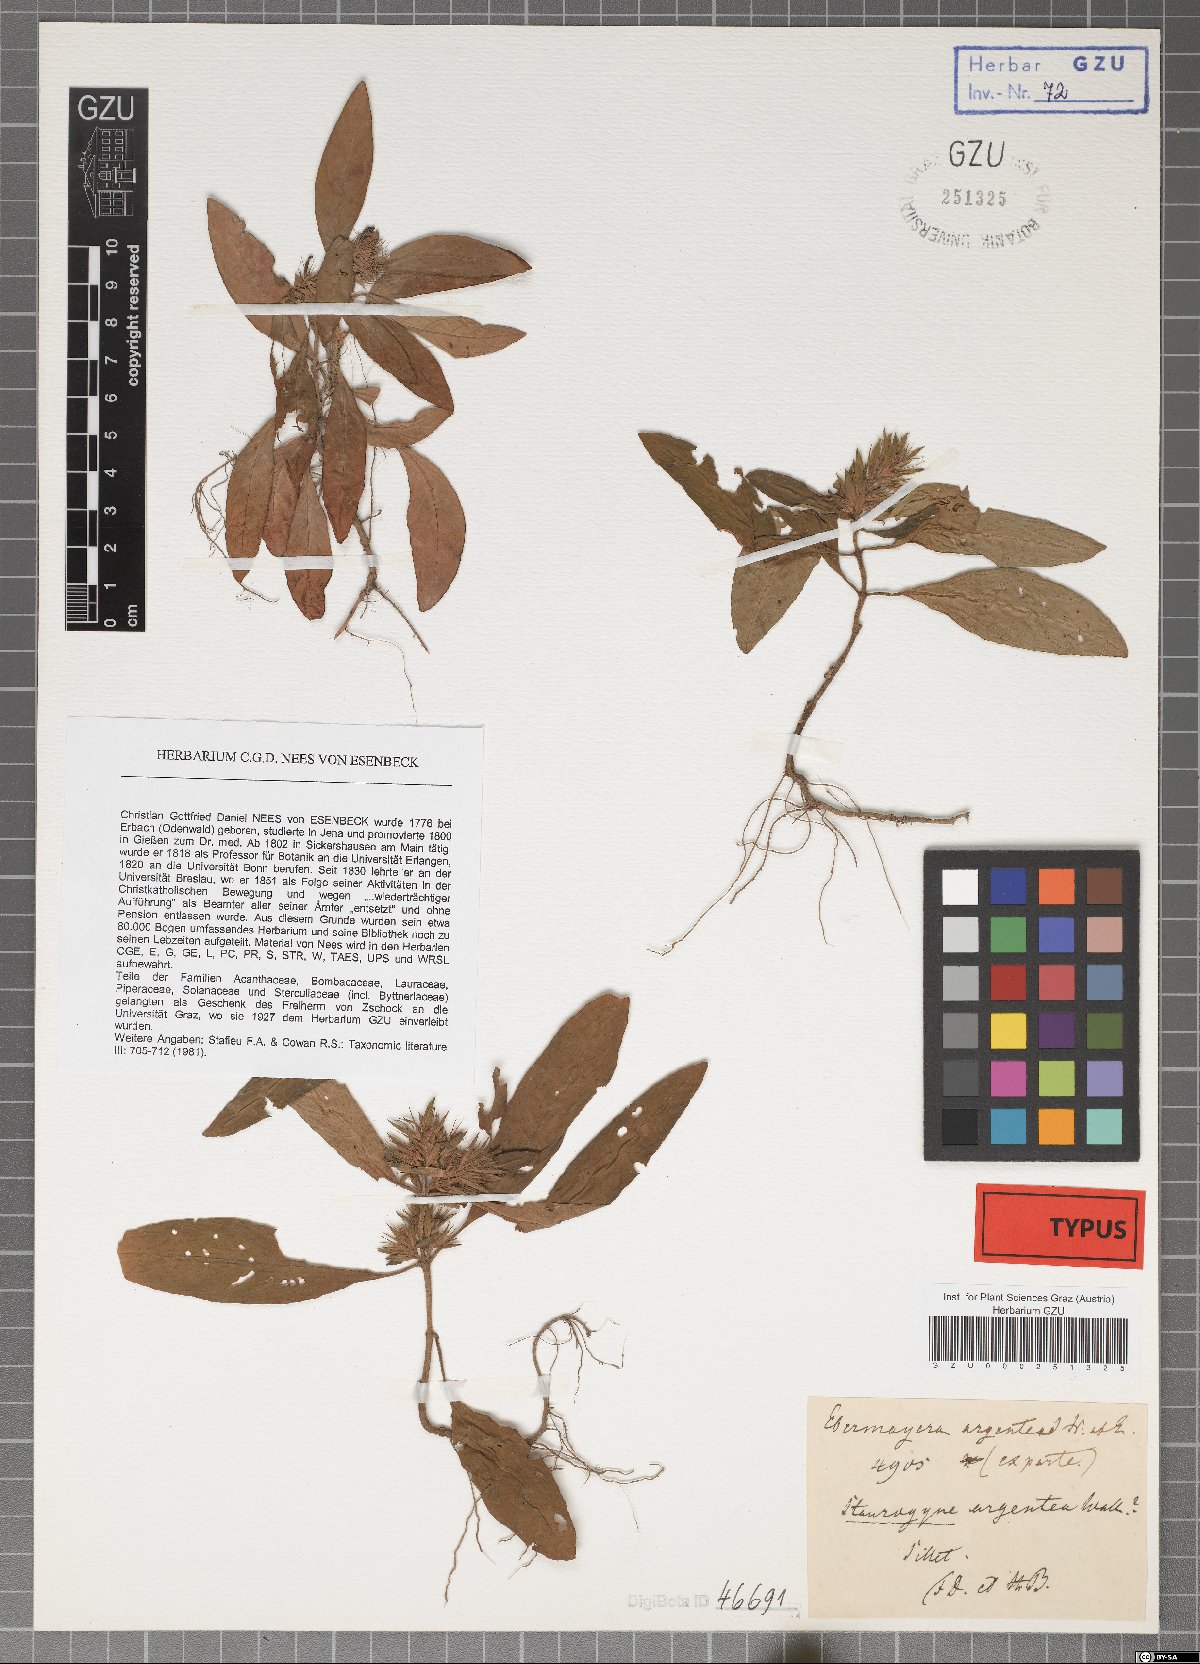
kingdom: Plantae
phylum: Tracheophyta
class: Magnoliopsida
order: Lamiales
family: Acanthaceae
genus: Staurogyne
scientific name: Staurogyne argentea
